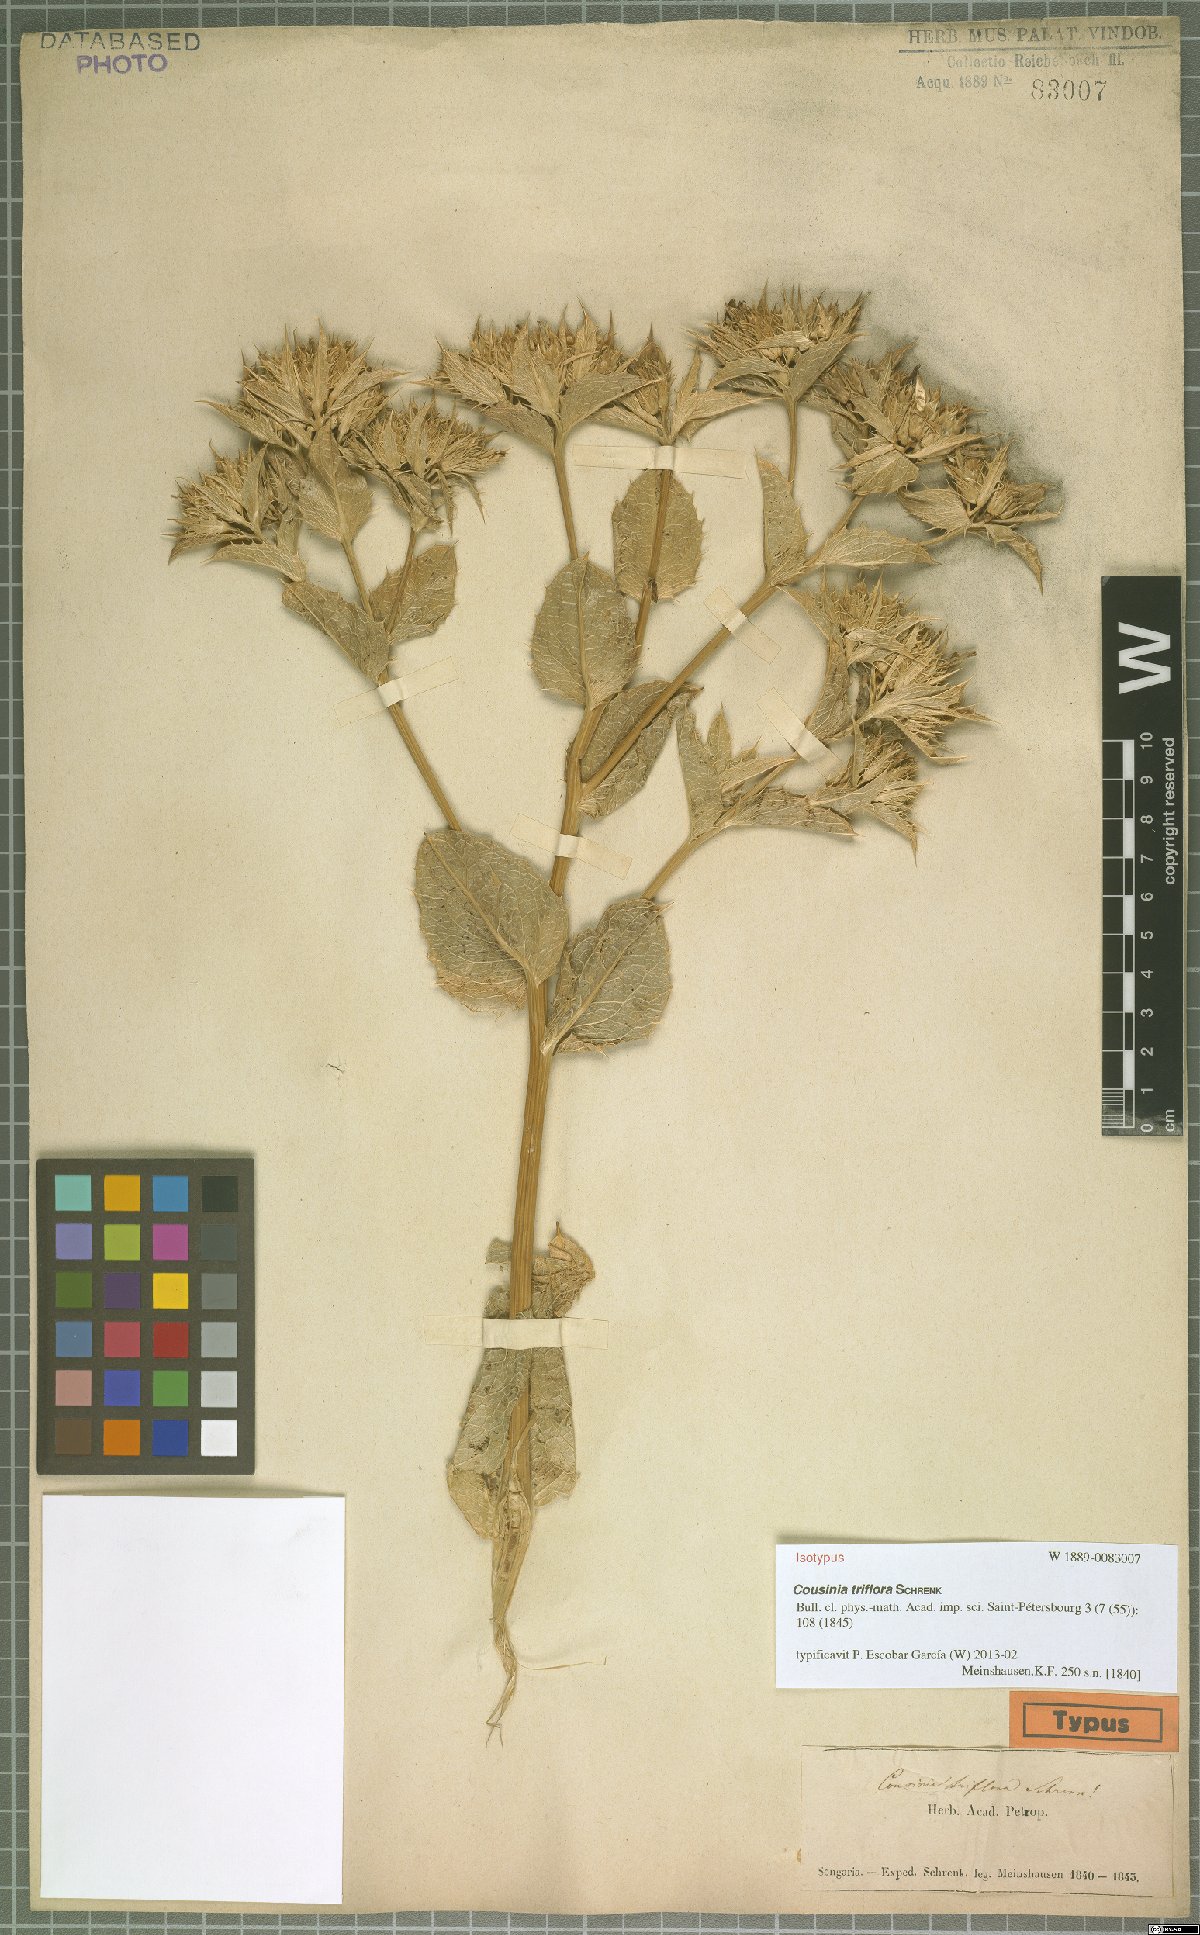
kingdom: Plantae
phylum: Tracheophyta
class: Magnoliopsida
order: Asterales
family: Asteraceae
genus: Arctium
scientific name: Arctium triflorum
